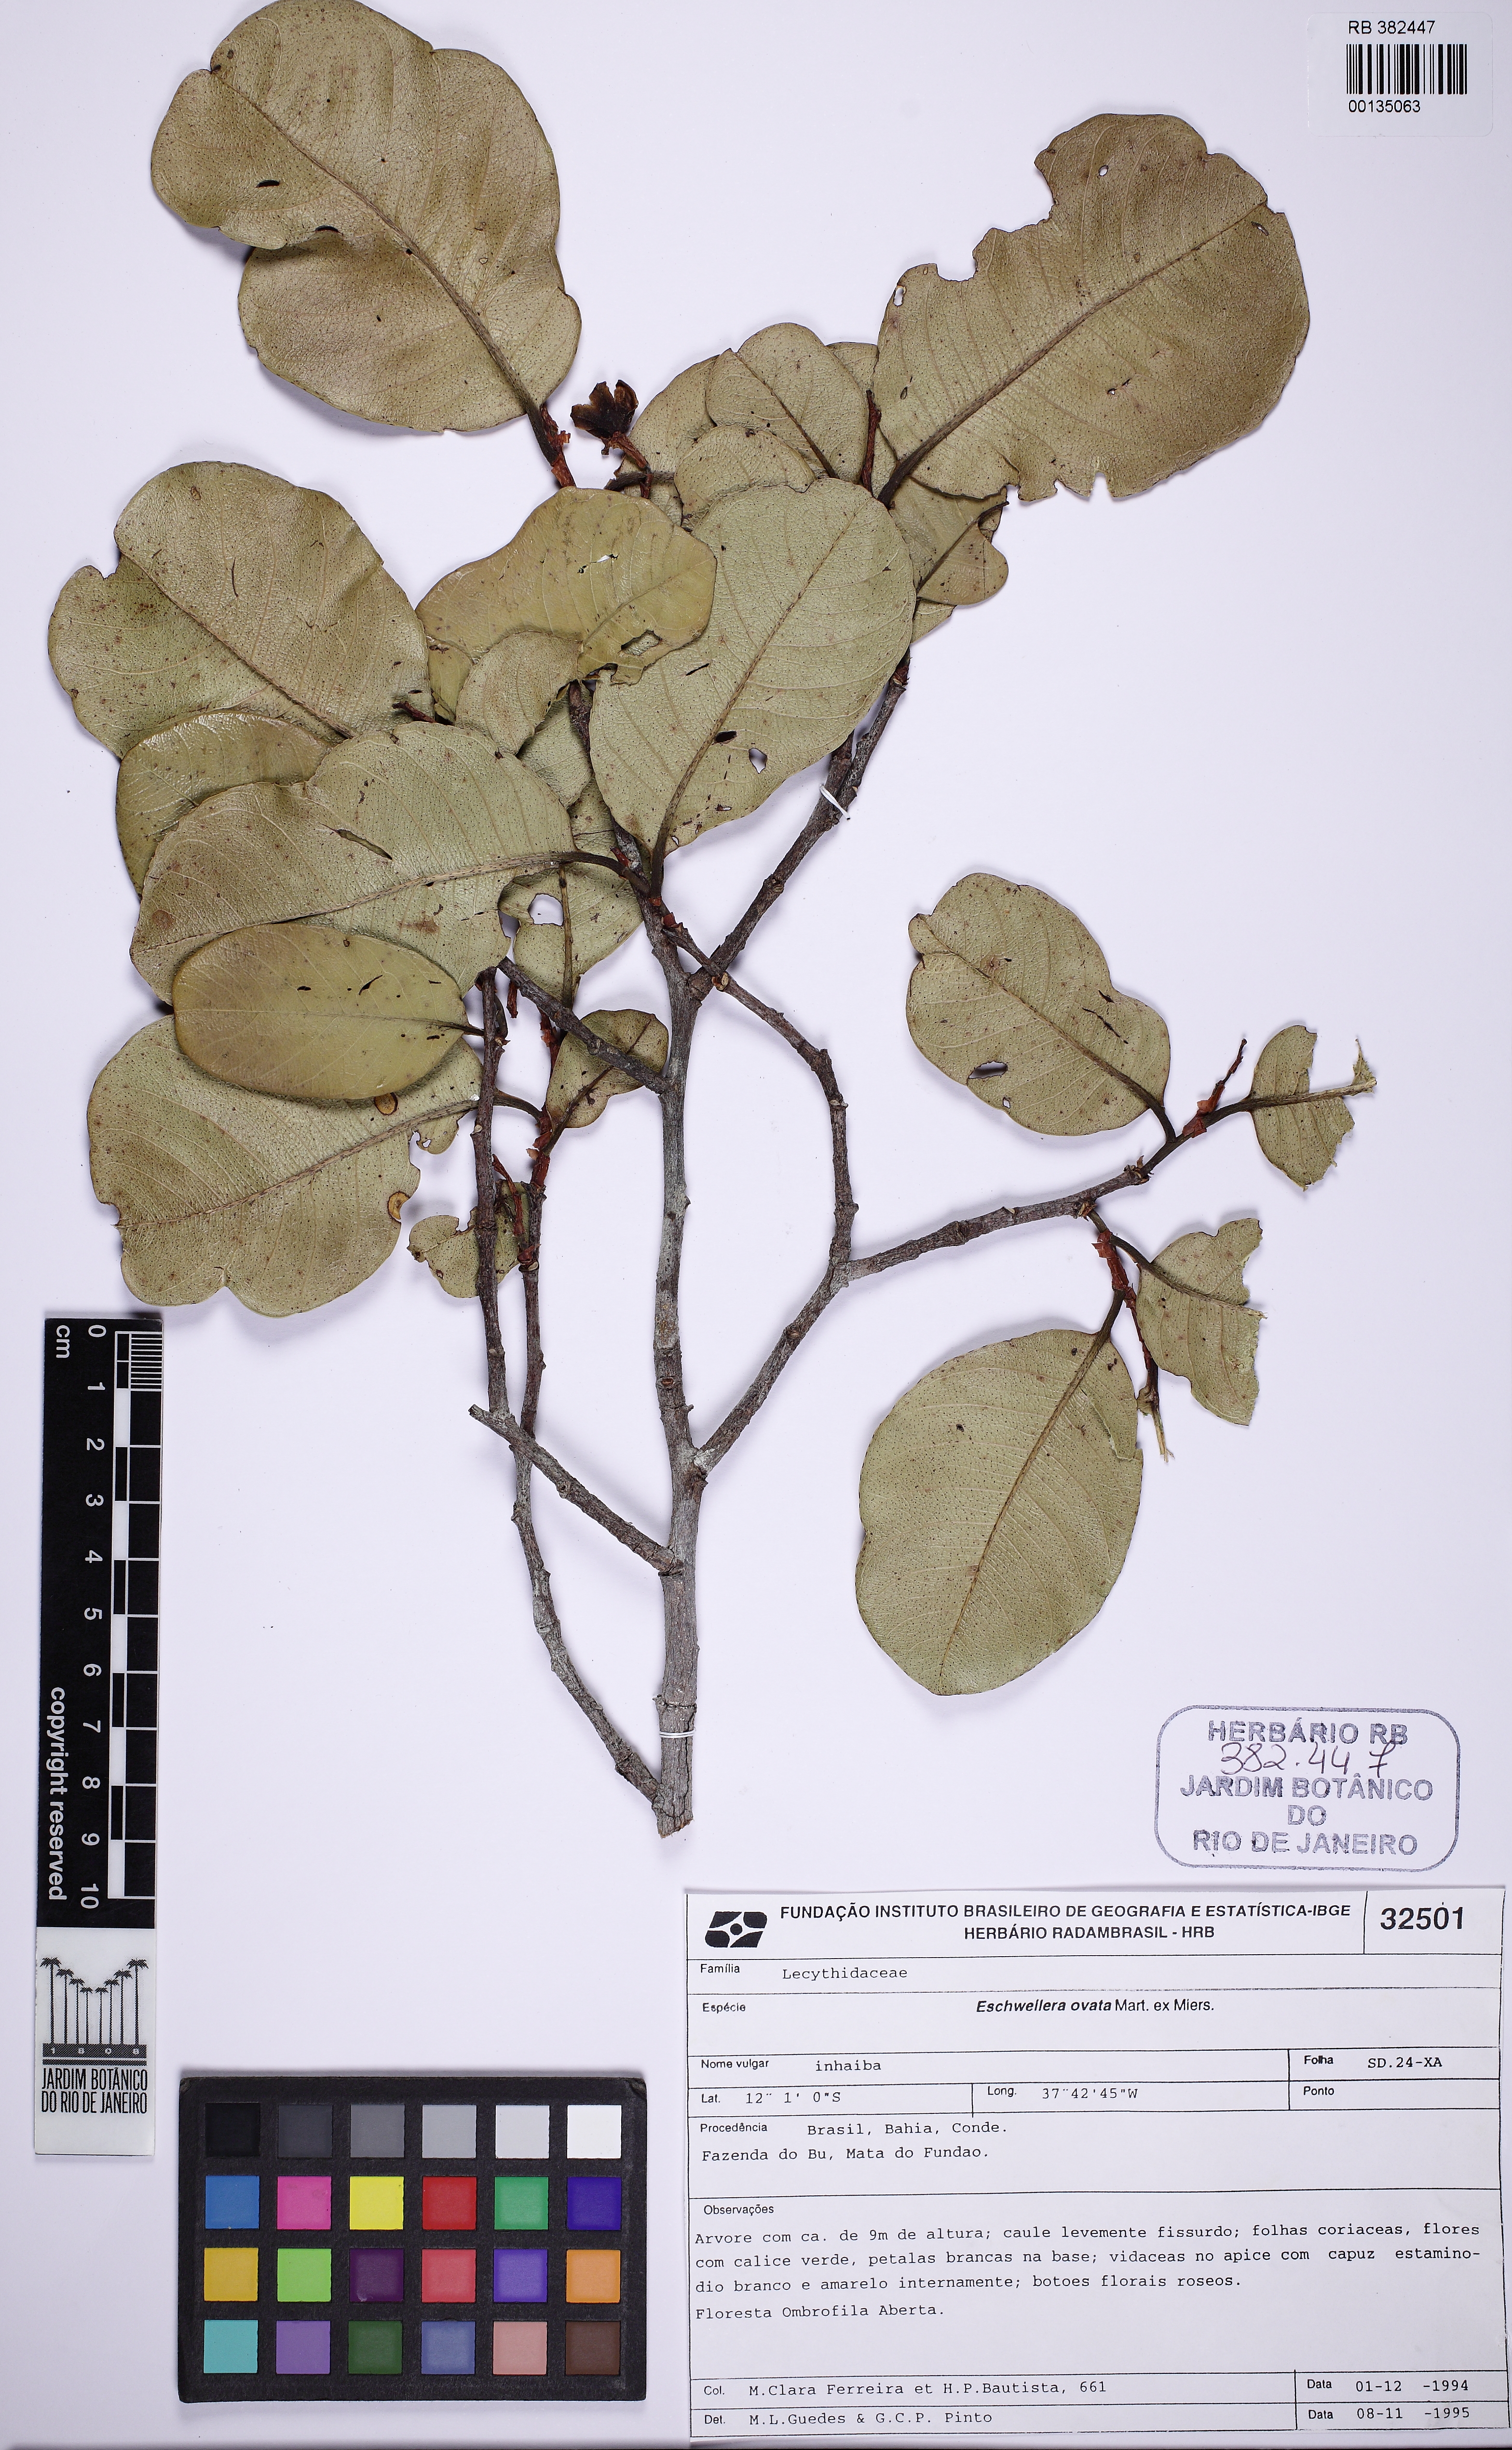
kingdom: Plantae
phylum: Tracheophyta
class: Magnoliopsida
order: Ericales
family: Lecythidaceae
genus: Eschweilera
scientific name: Eschweilera ovata
